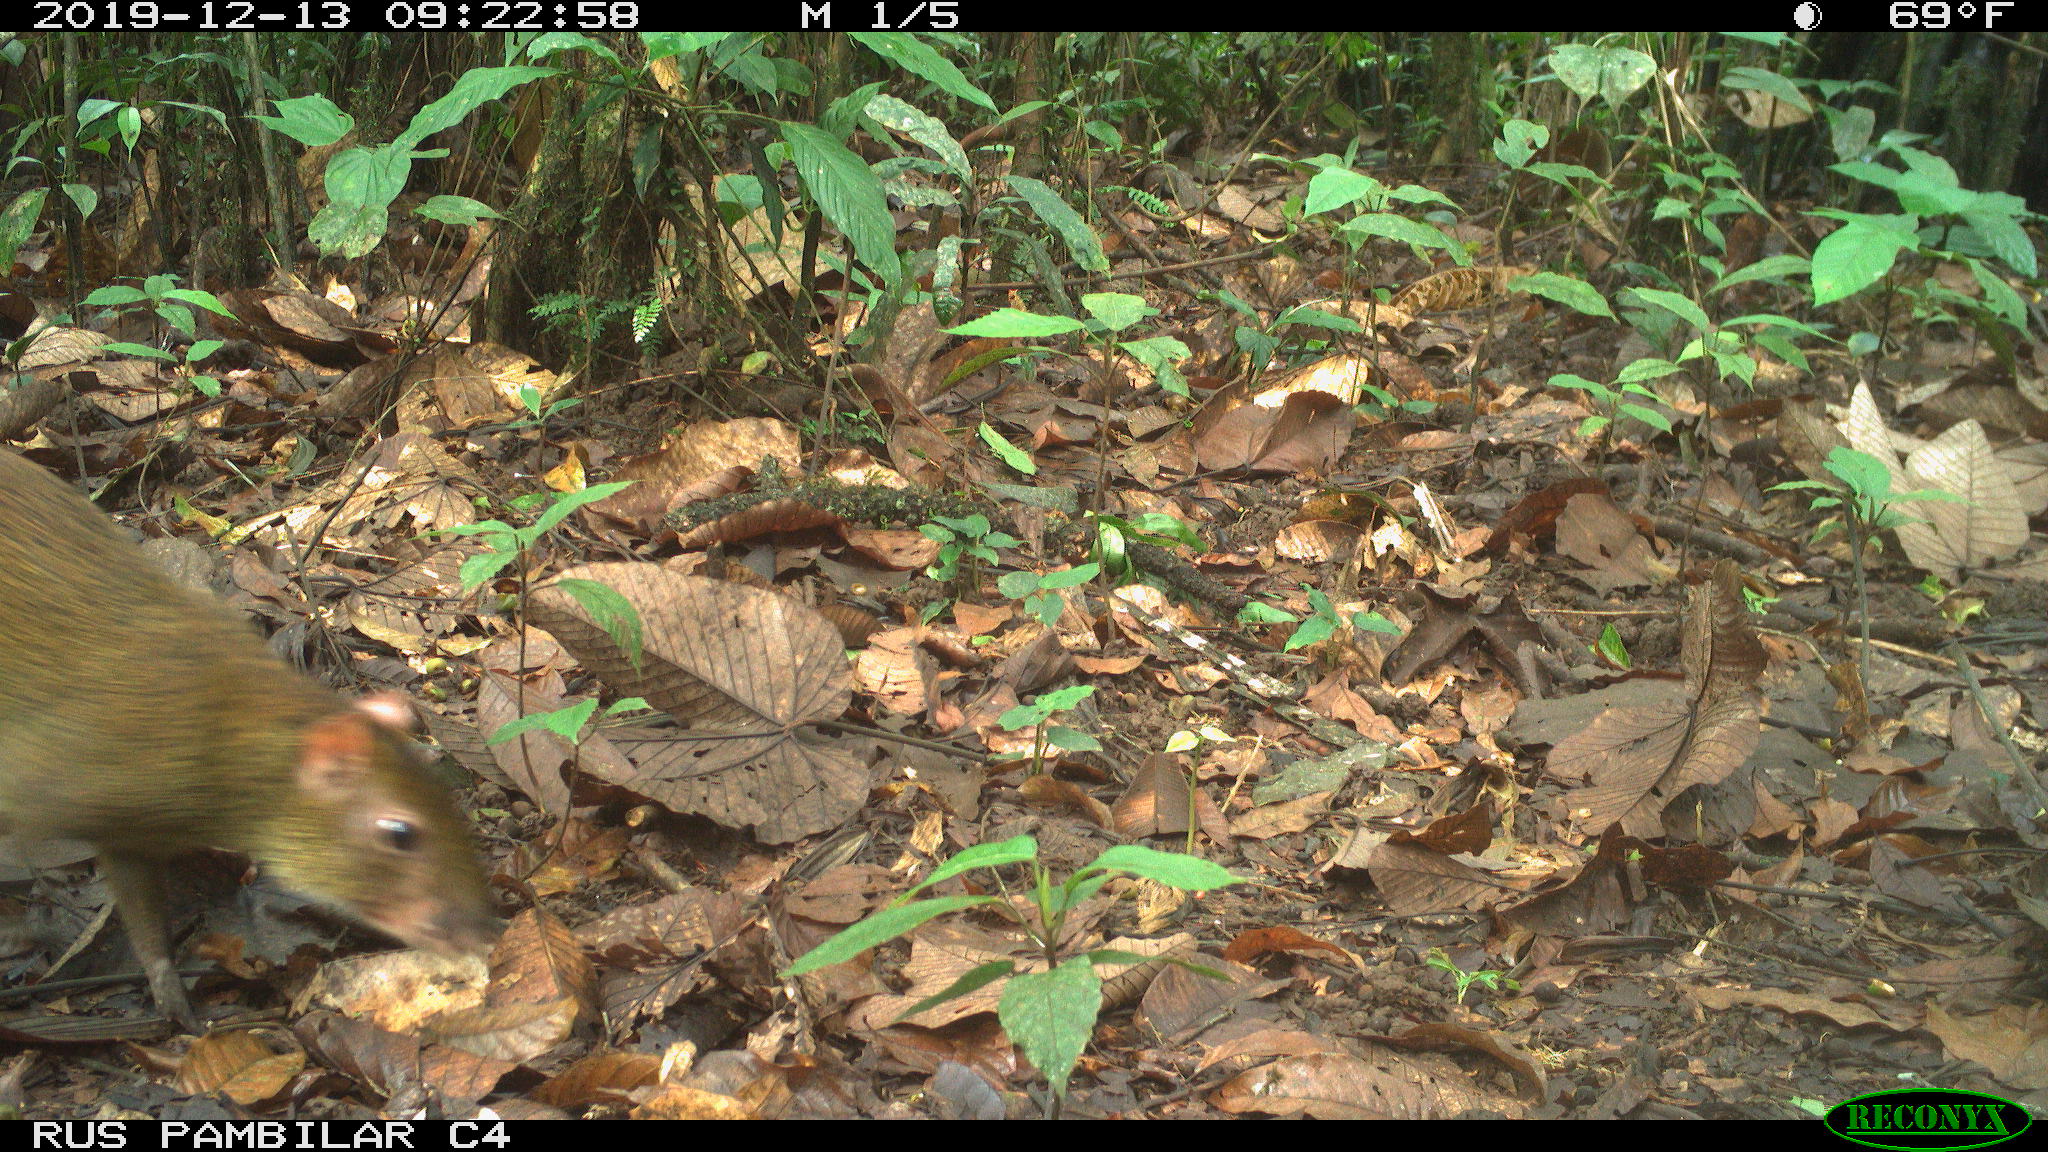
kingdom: Animalia
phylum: Chordata
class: Mammalia
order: Rodentia
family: Dasyproctidae
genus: Dasyprocta
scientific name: Dasyprocta punctata
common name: Central american agouti
